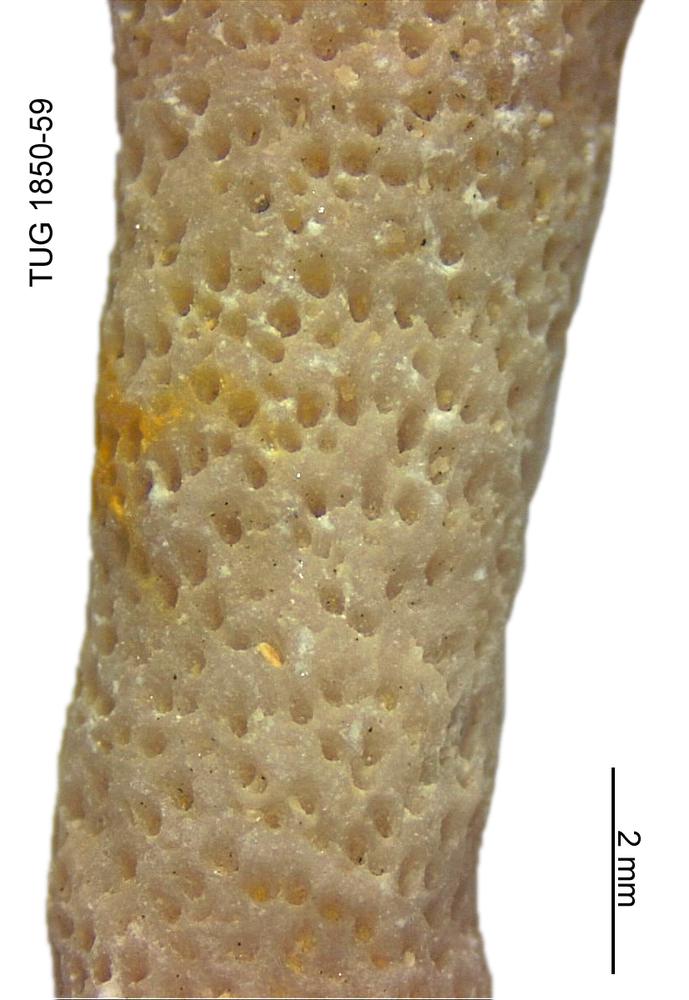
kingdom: Animalia
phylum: Cnidaria
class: Anthozoa
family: Coenitidae
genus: Coenites
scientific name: Coenites juniperinus
